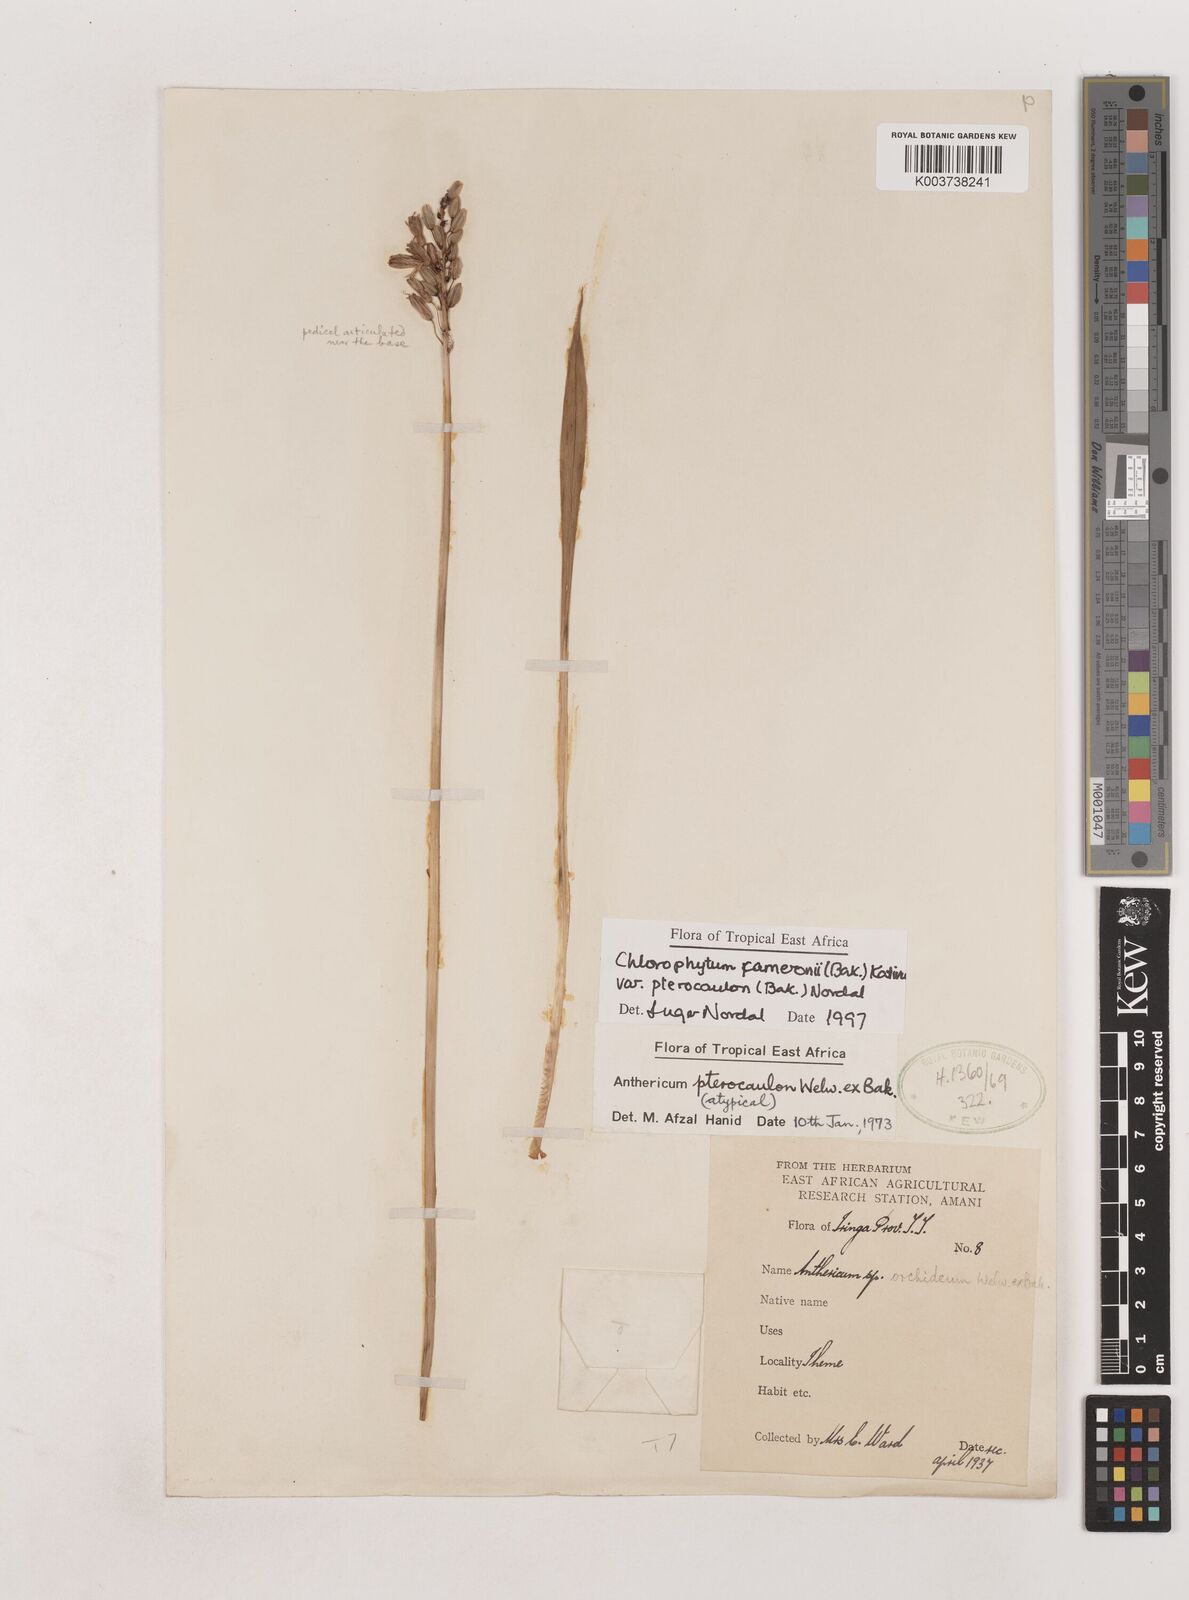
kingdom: Plantae
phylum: Tracheophyta
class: Liliopsida
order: Asparagales
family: Asparagaceae
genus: Chlorophytum
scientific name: Chlorophytum cameronii
